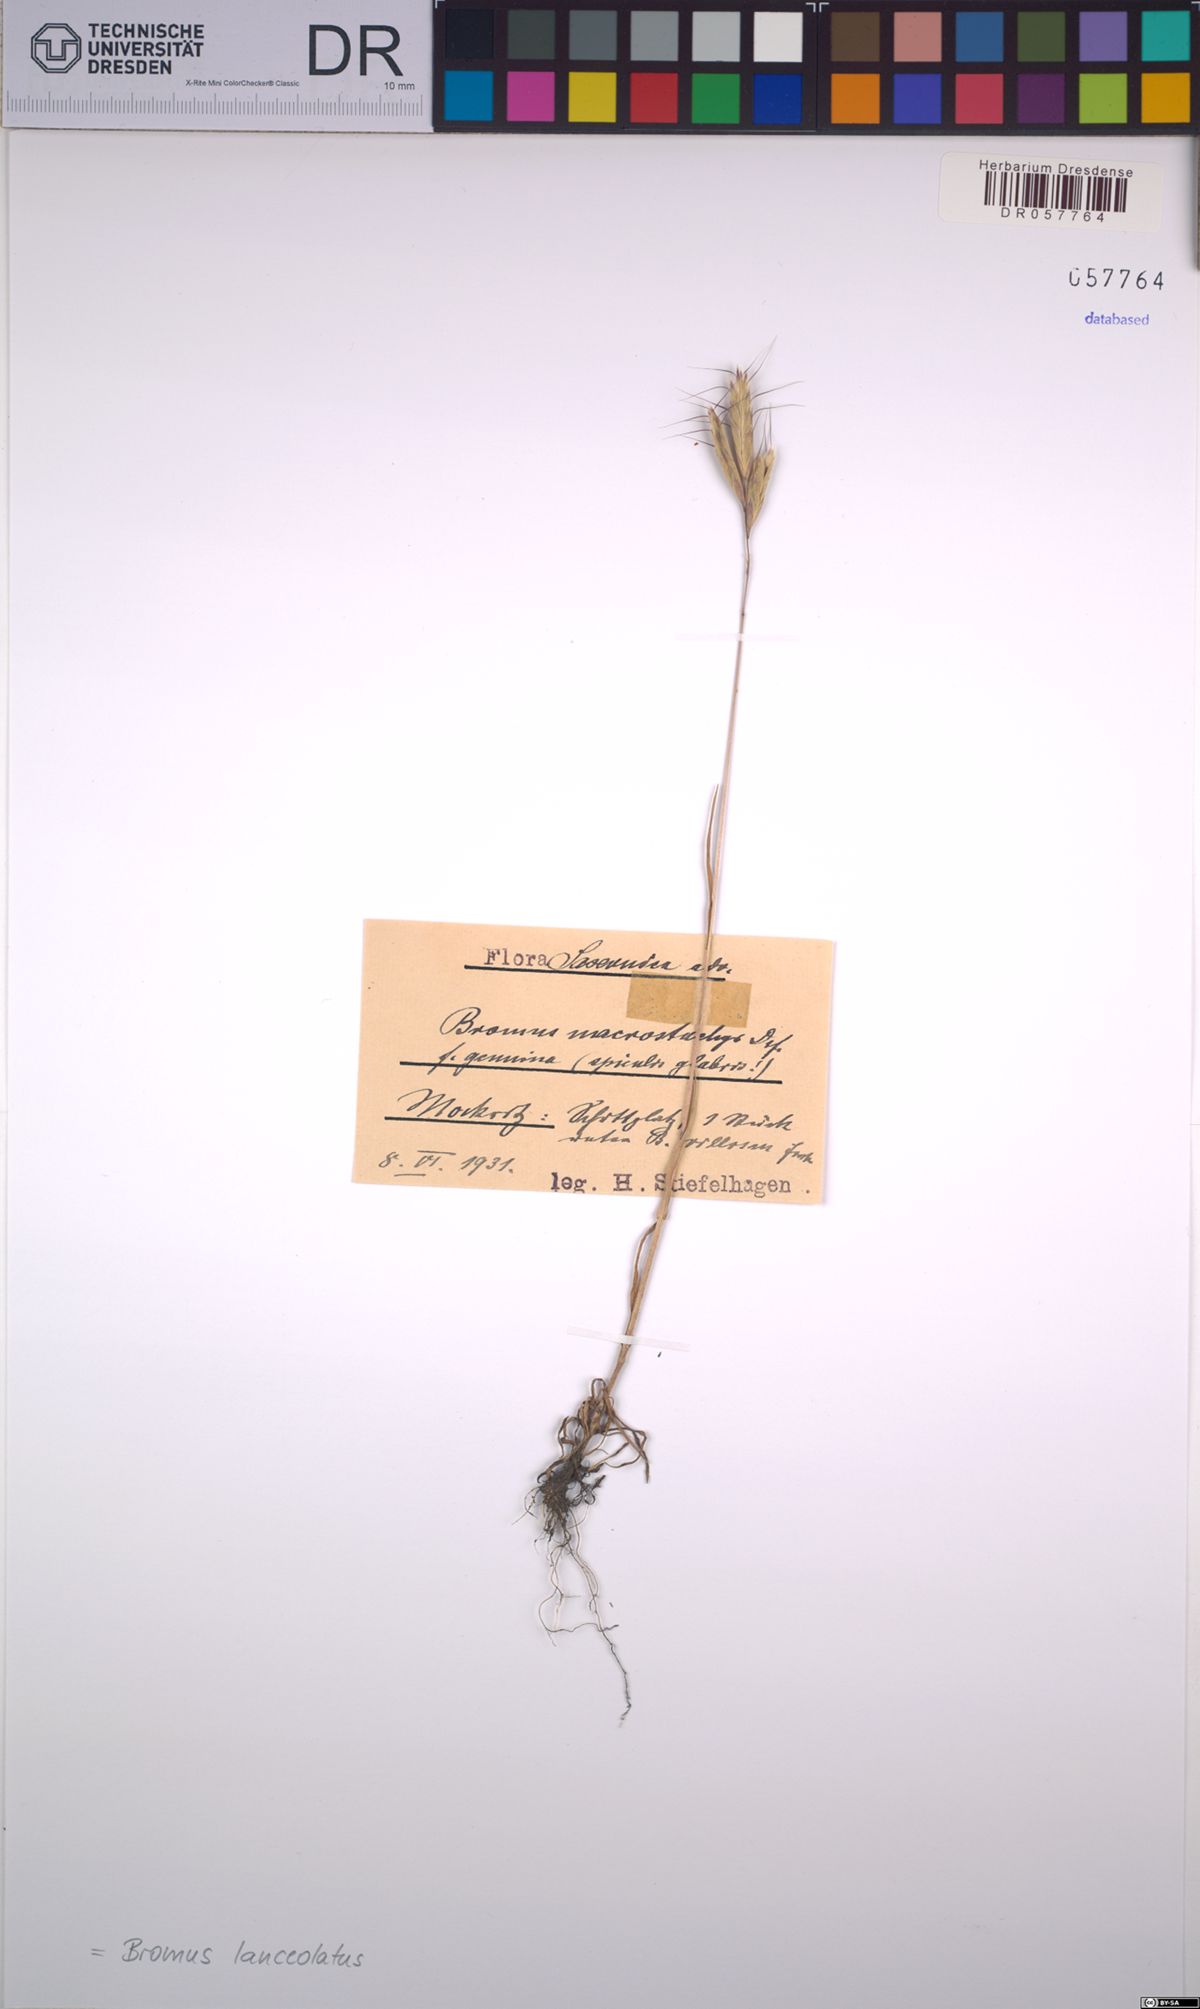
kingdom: Plantae
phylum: Tracheophyta
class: Liliopsida
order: Poales
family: Poaceae
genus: Bromus
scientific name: Bromus lanceolatus
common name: Mediterranean brome
